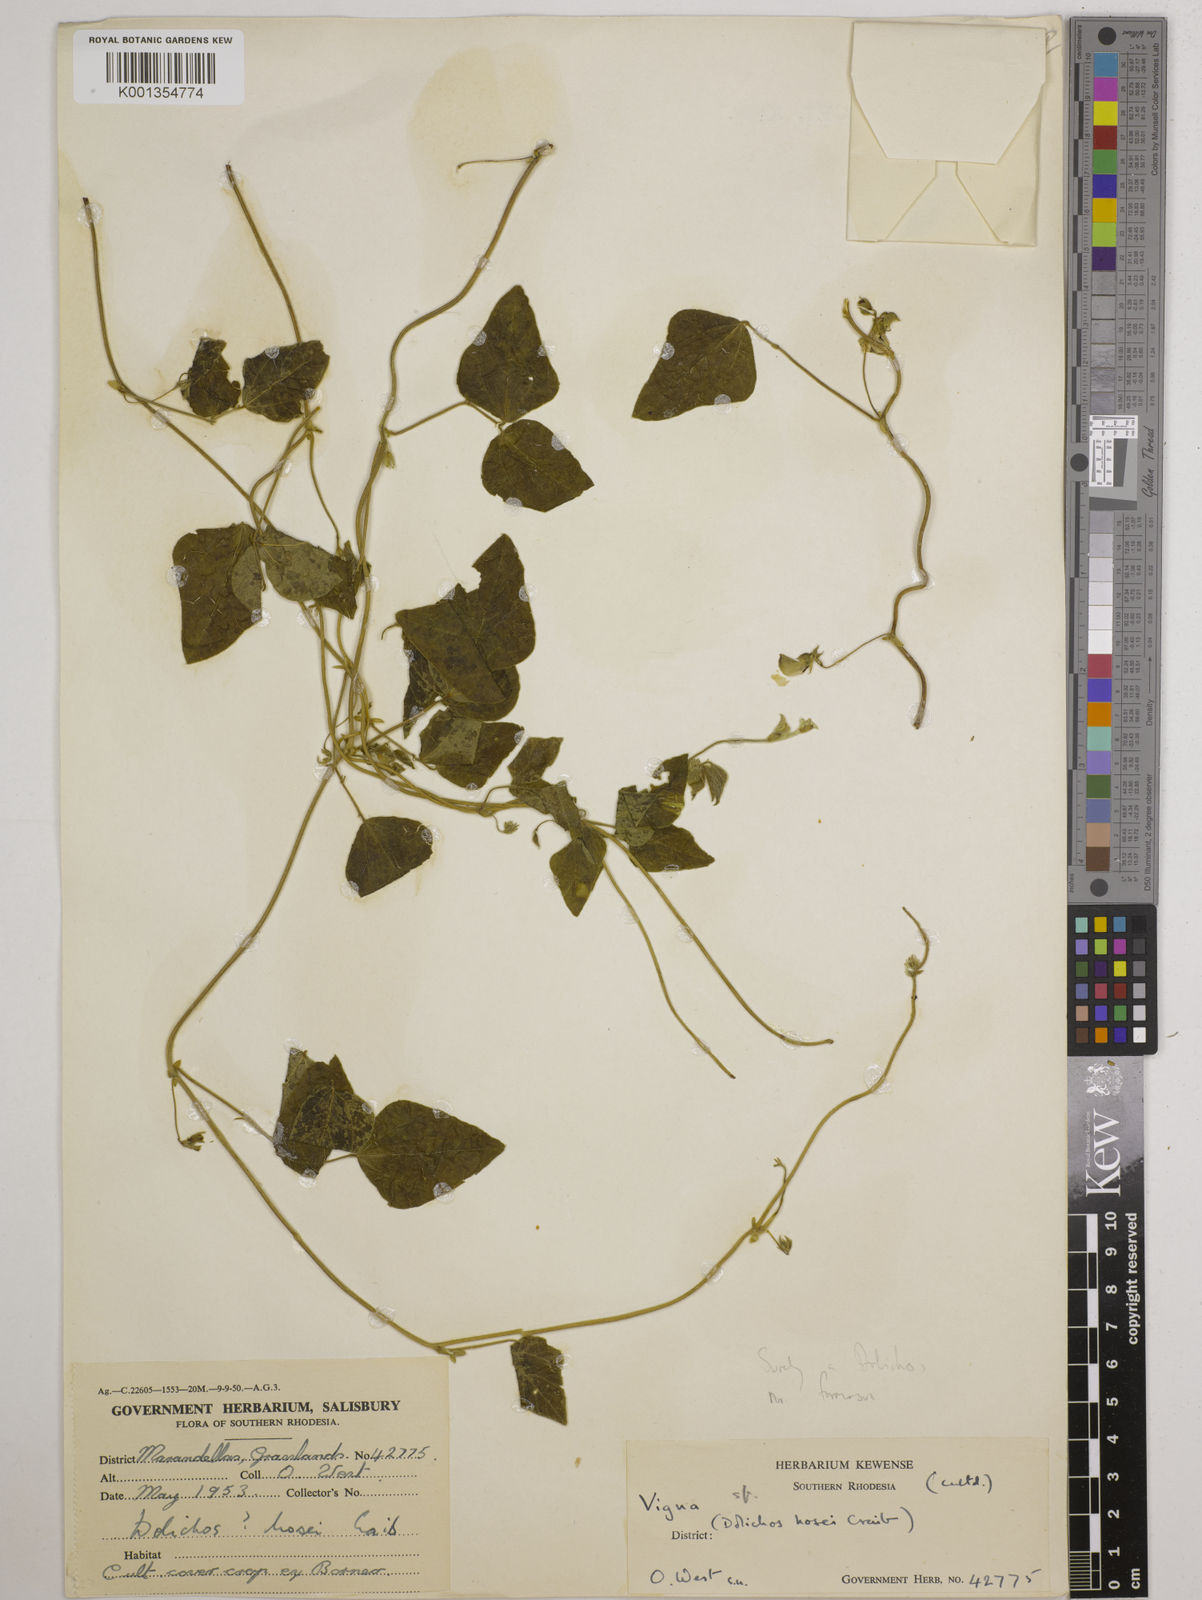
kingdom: Plantae
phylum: Tracheophyta
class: Magnoliopsida
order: Fabales
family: Fabaceae
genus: Dolichos
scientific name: Dolichos
